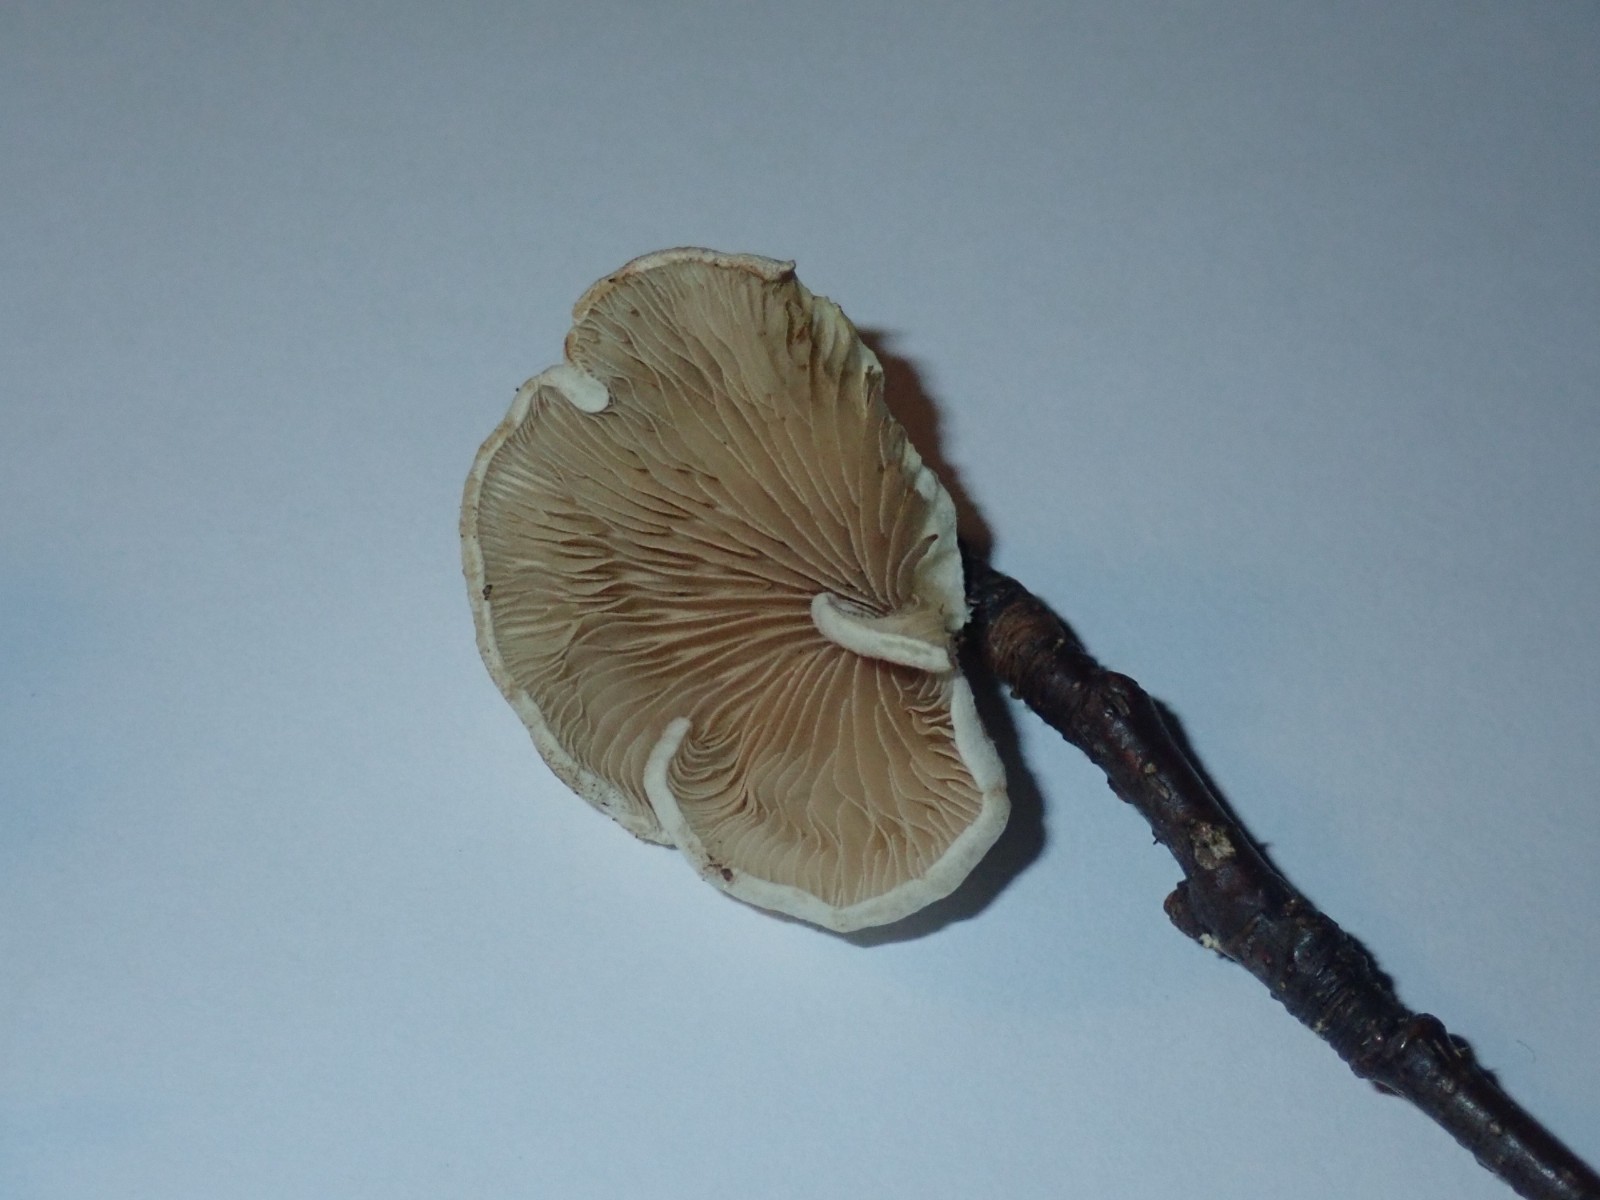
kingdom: Fungi
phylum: Basidiomycota
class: Agaricomycetes
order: Agaricales
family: Crepidotaceae
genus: Crepidotus
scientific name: Crepidotus
